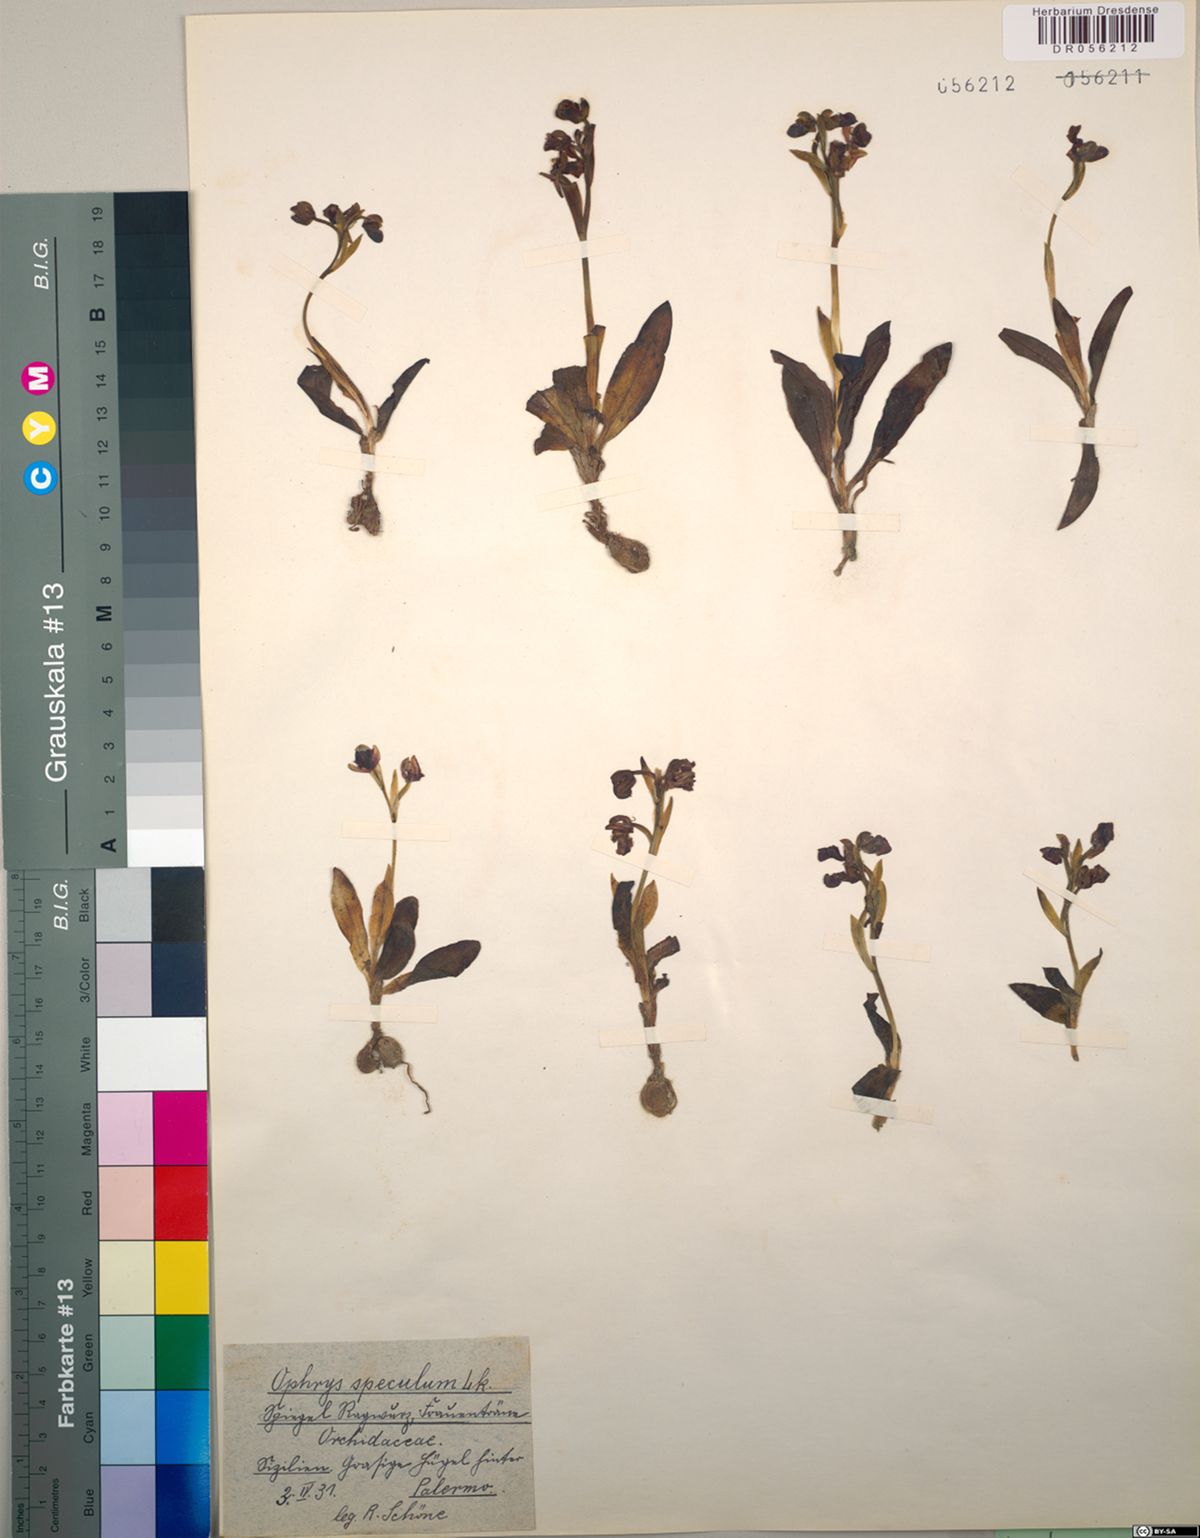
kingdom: Plantae
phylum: Tracheophyta
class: Liliopsida
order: Asparagales
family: Orchidaceae
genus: Ophrys
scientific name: Ophrys speculum
